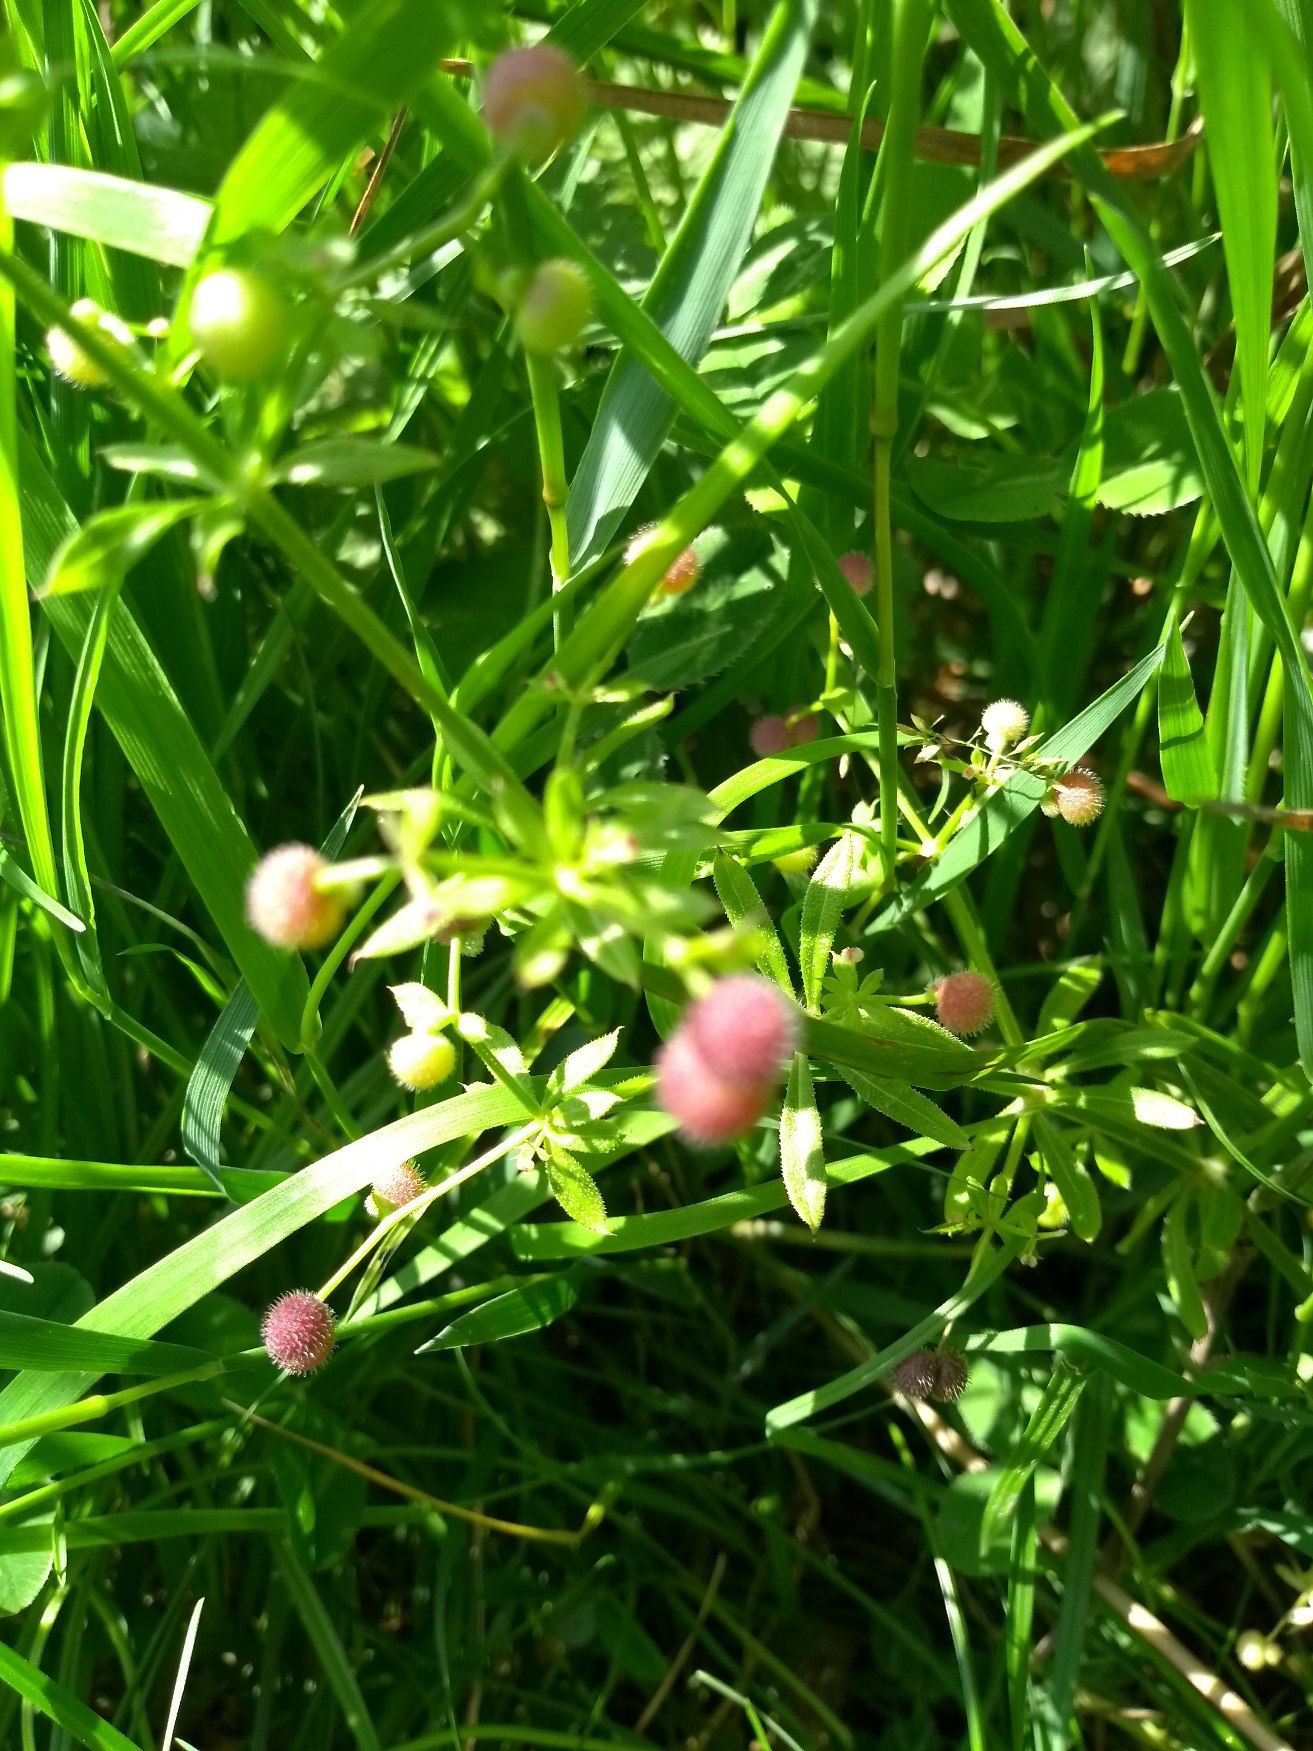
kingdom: Plantae
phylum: Tracheophyta
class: Magnoliopsida
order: Gentianales
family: Rubiaceae
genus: Galium
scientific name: Galium aparine
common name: Burre-snerre
